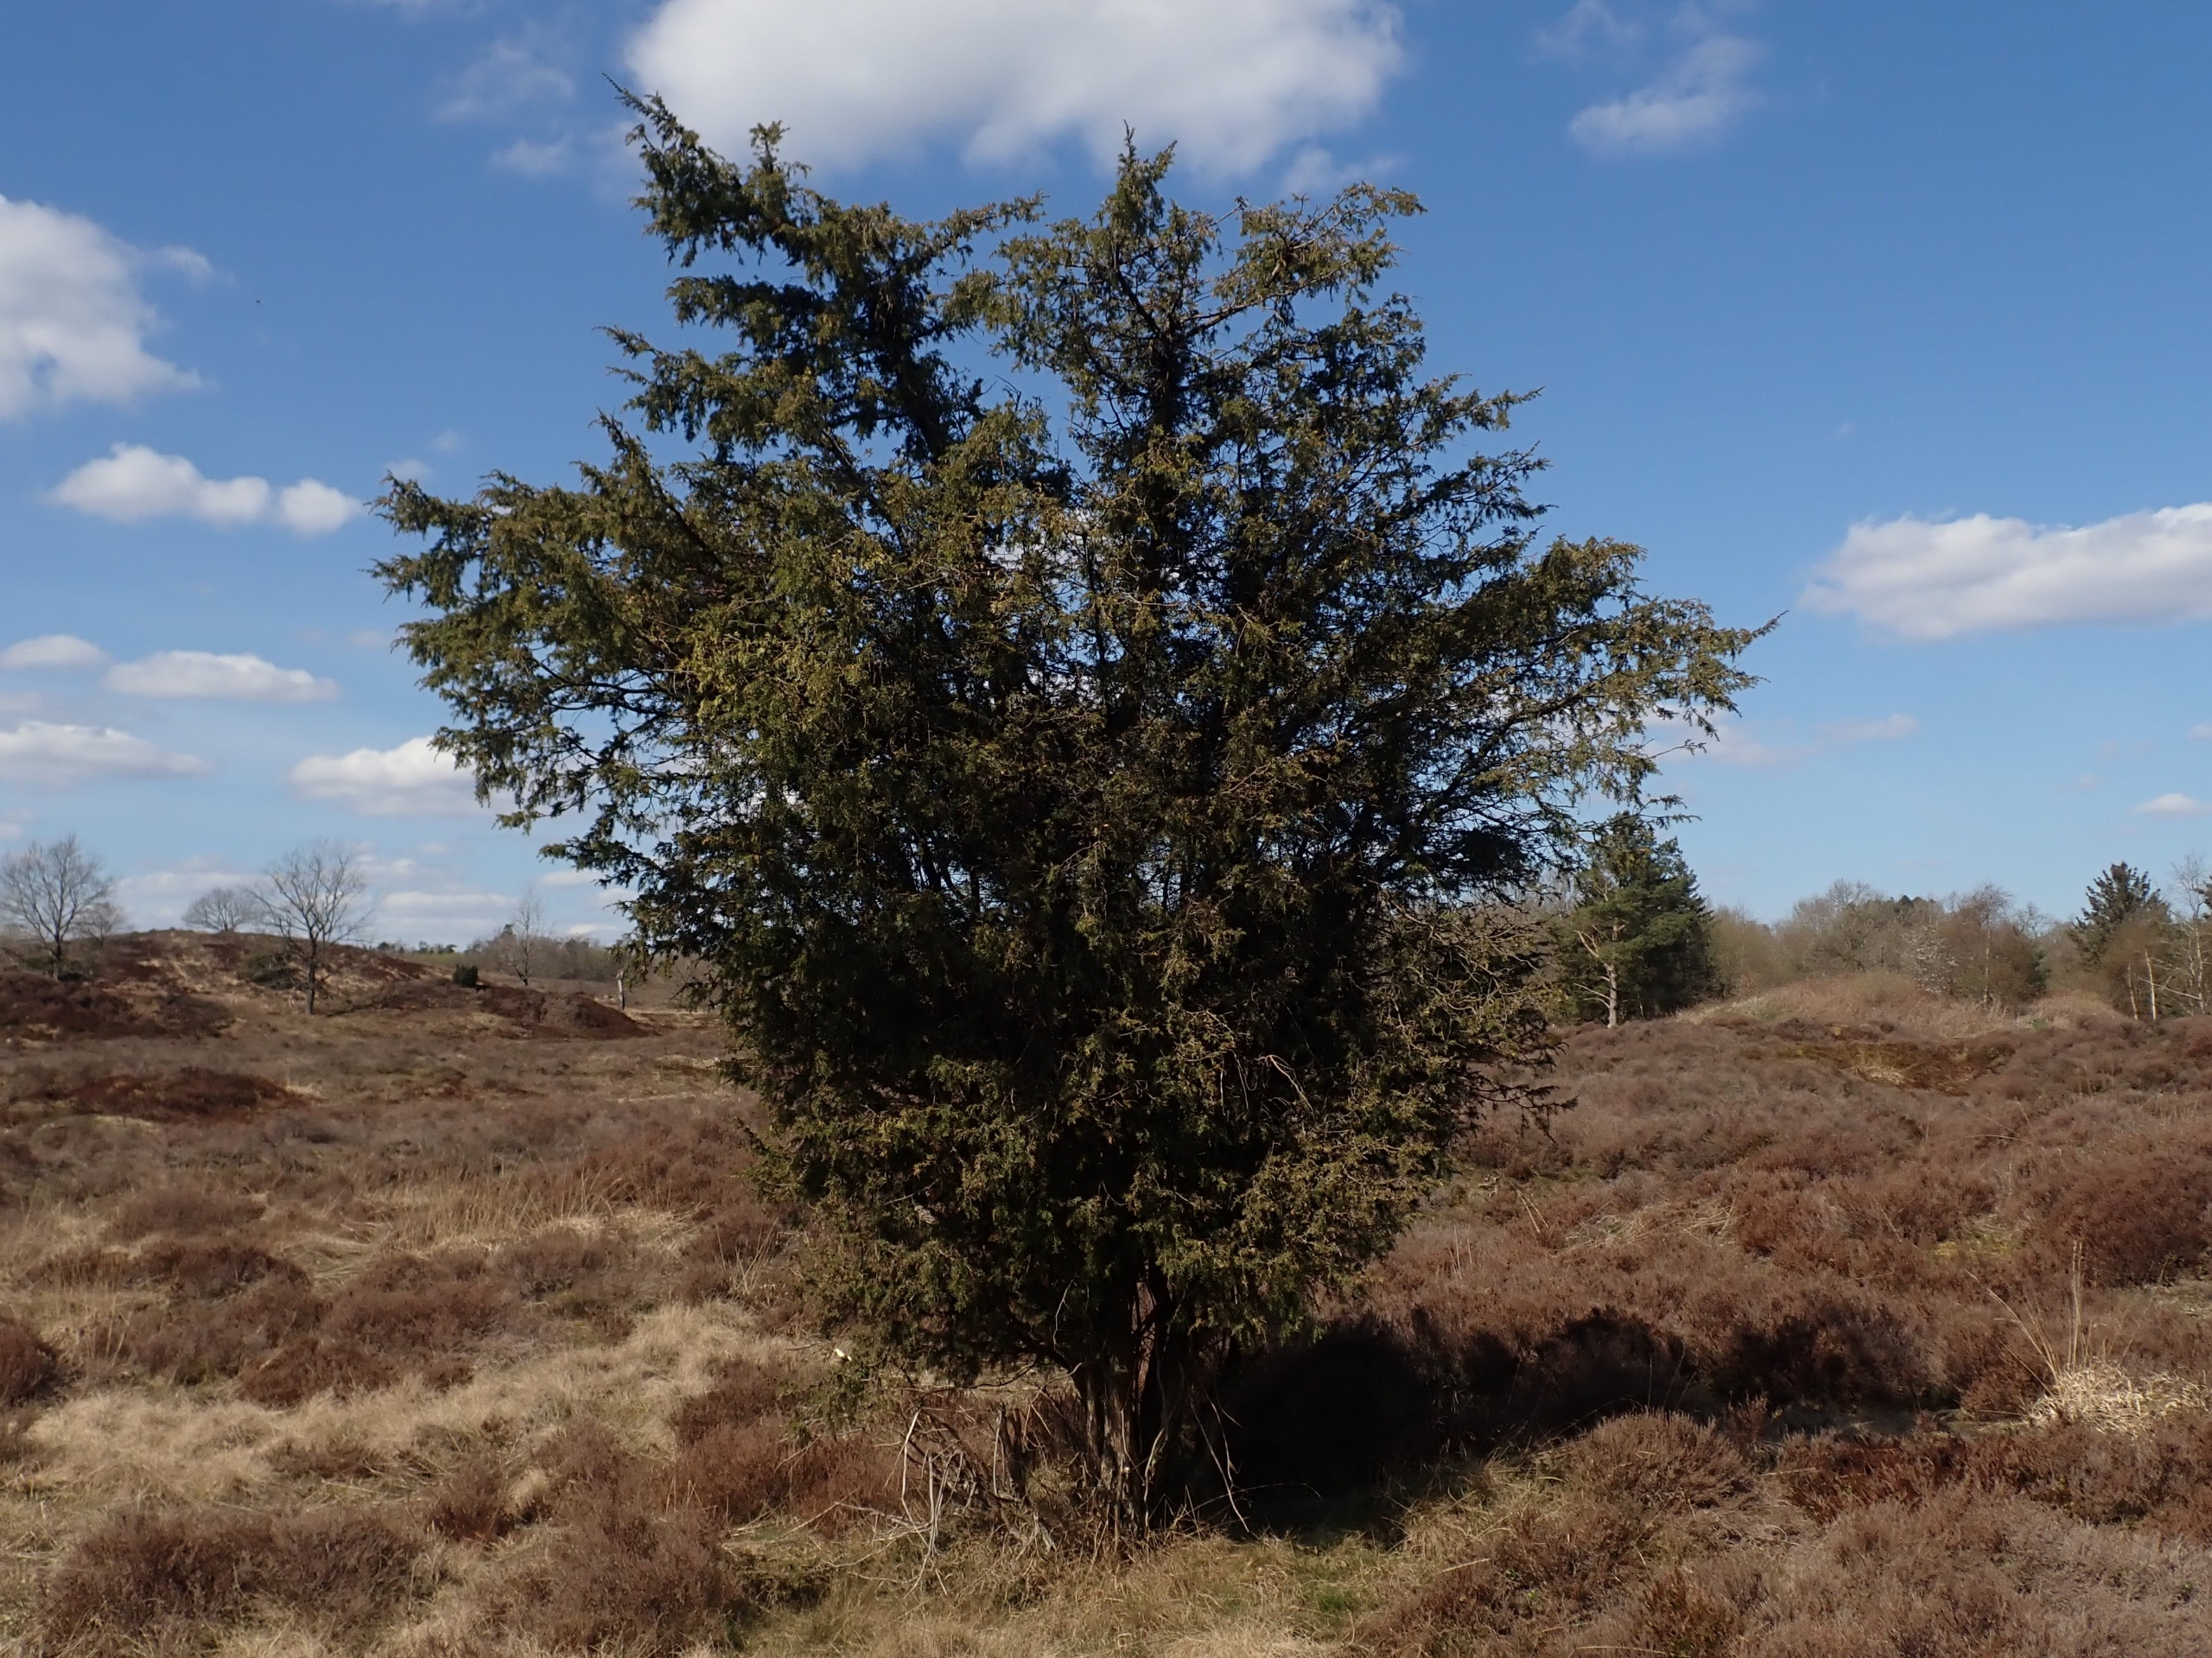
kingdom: Plantae
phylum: Tracheophyta
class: Pinopsida
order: Pinales
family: Cupressaceae
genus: Juniperus
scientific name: Juniperus communis
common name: Almindelig ene
